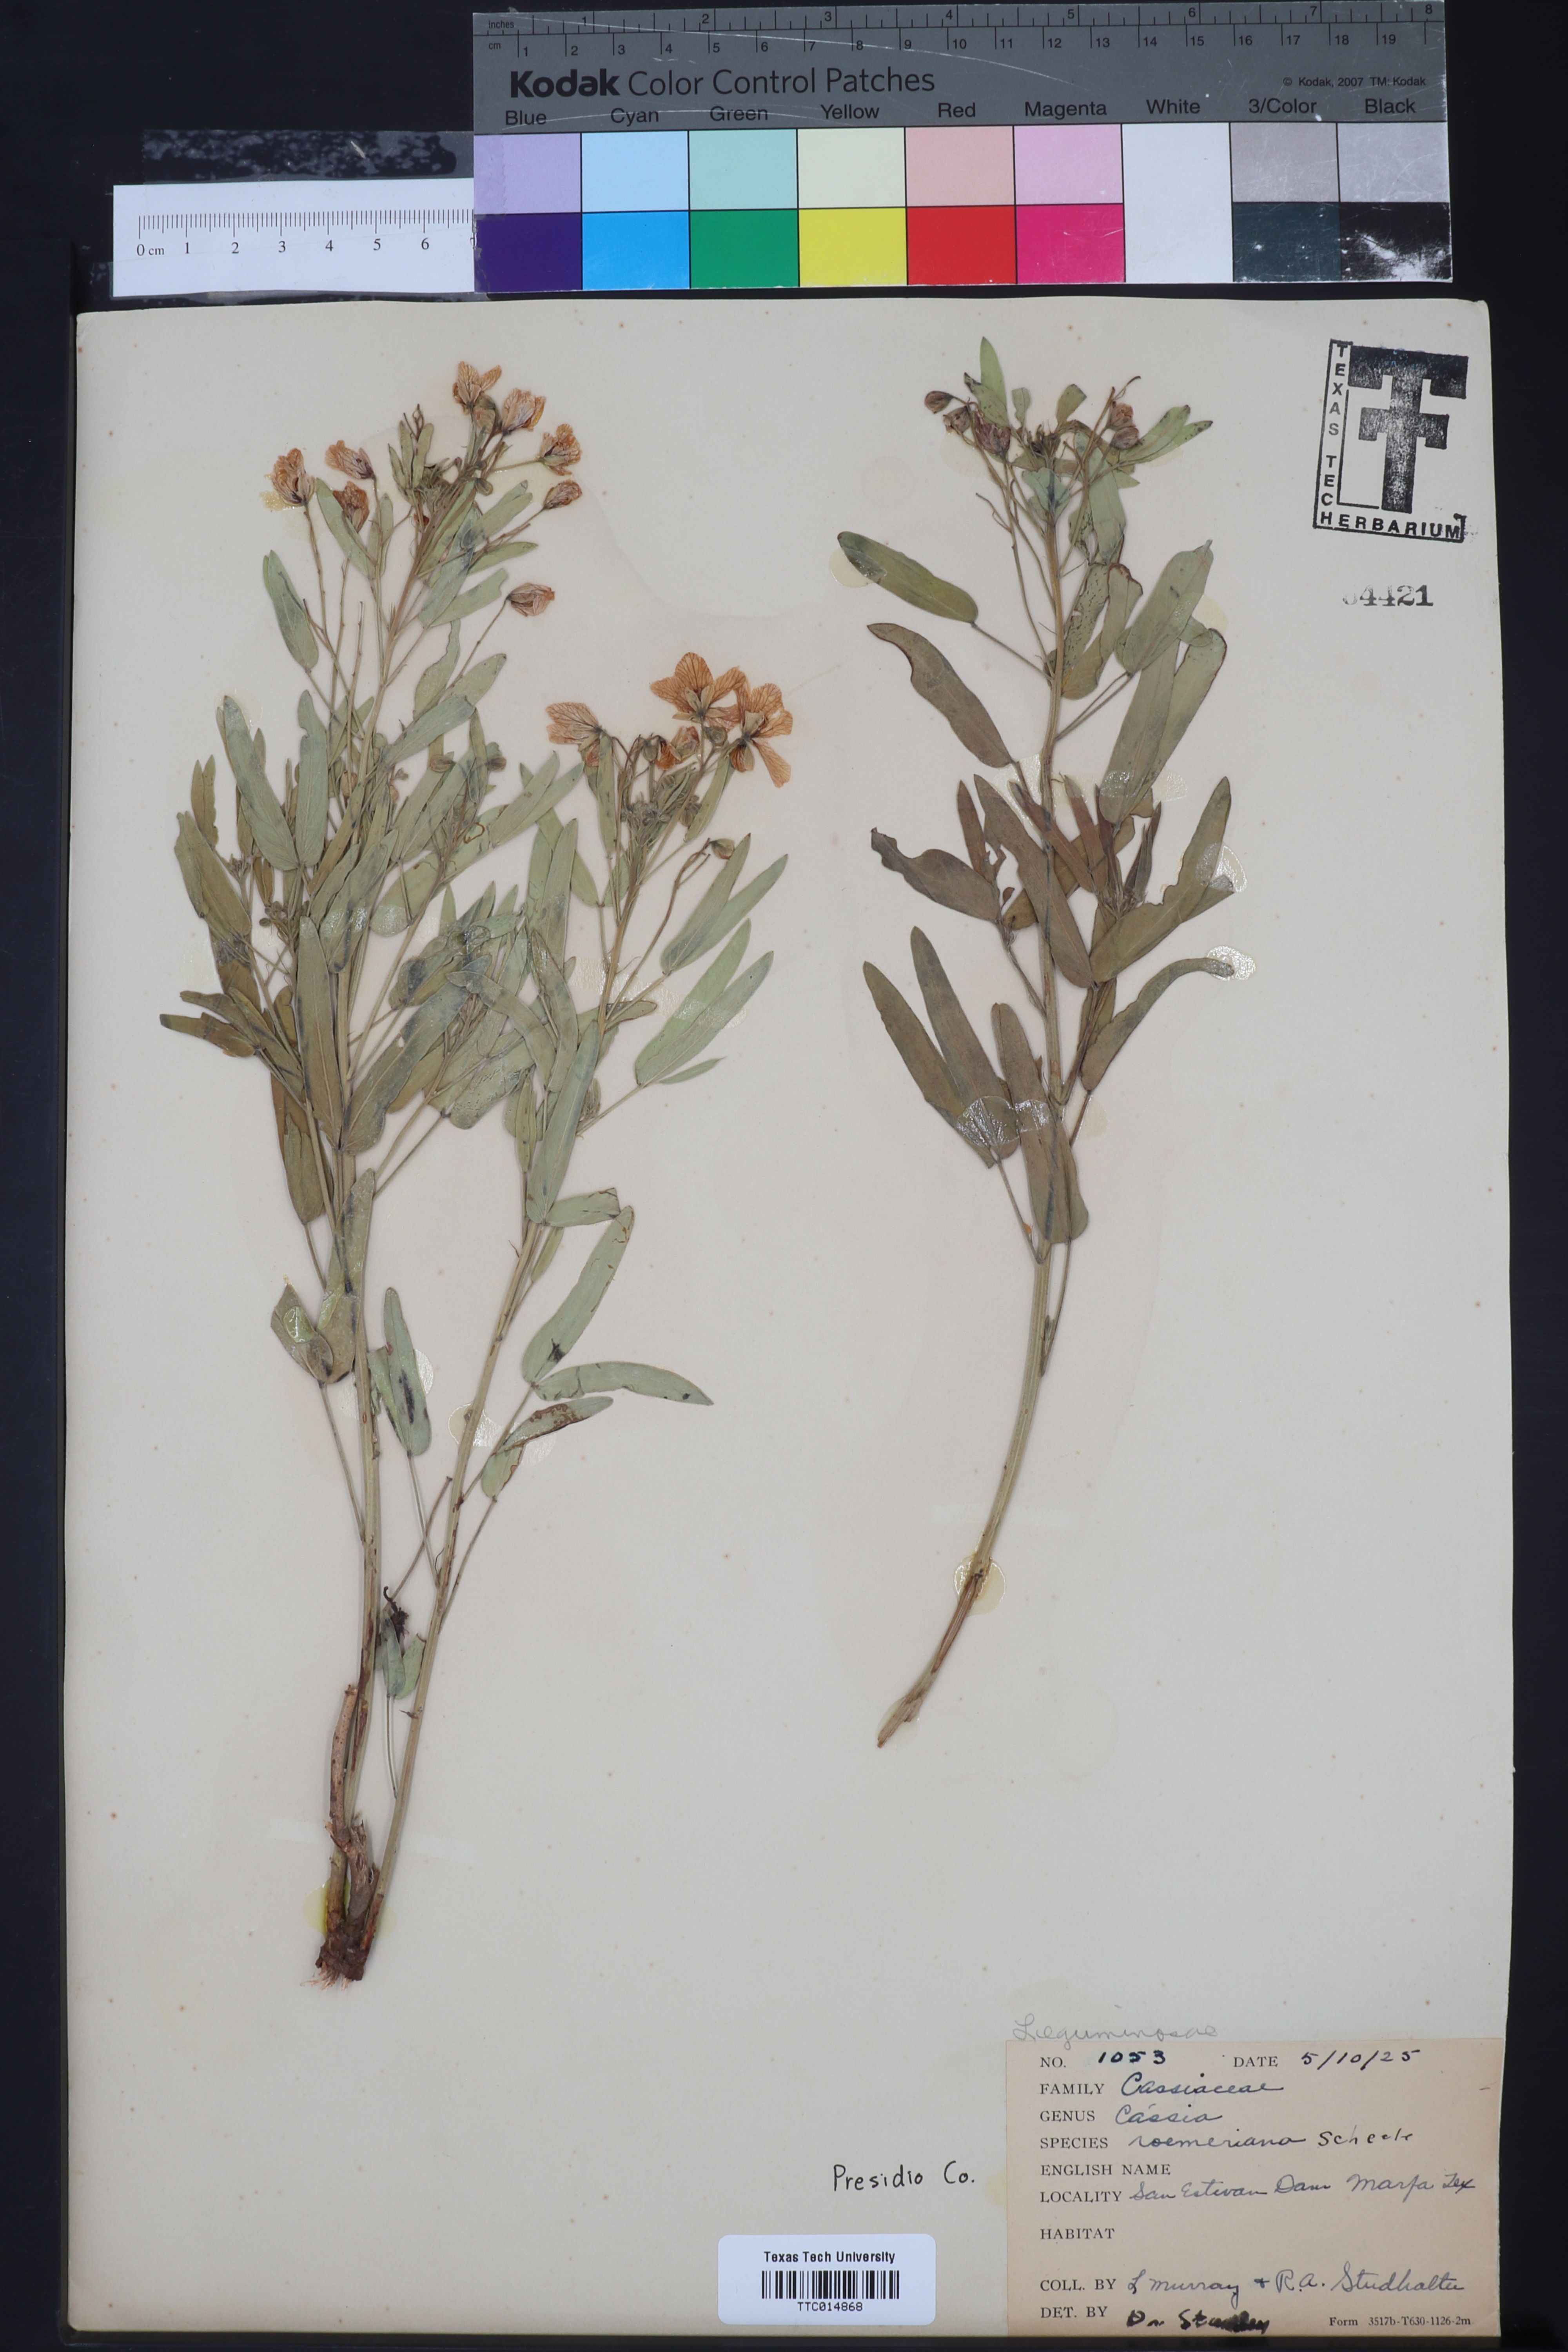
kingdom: Plantae
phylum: Tracheophyta
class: Magnoliopsida
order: Fabales
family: Fabaceae
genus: Senna
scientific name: Senna roemeriana
